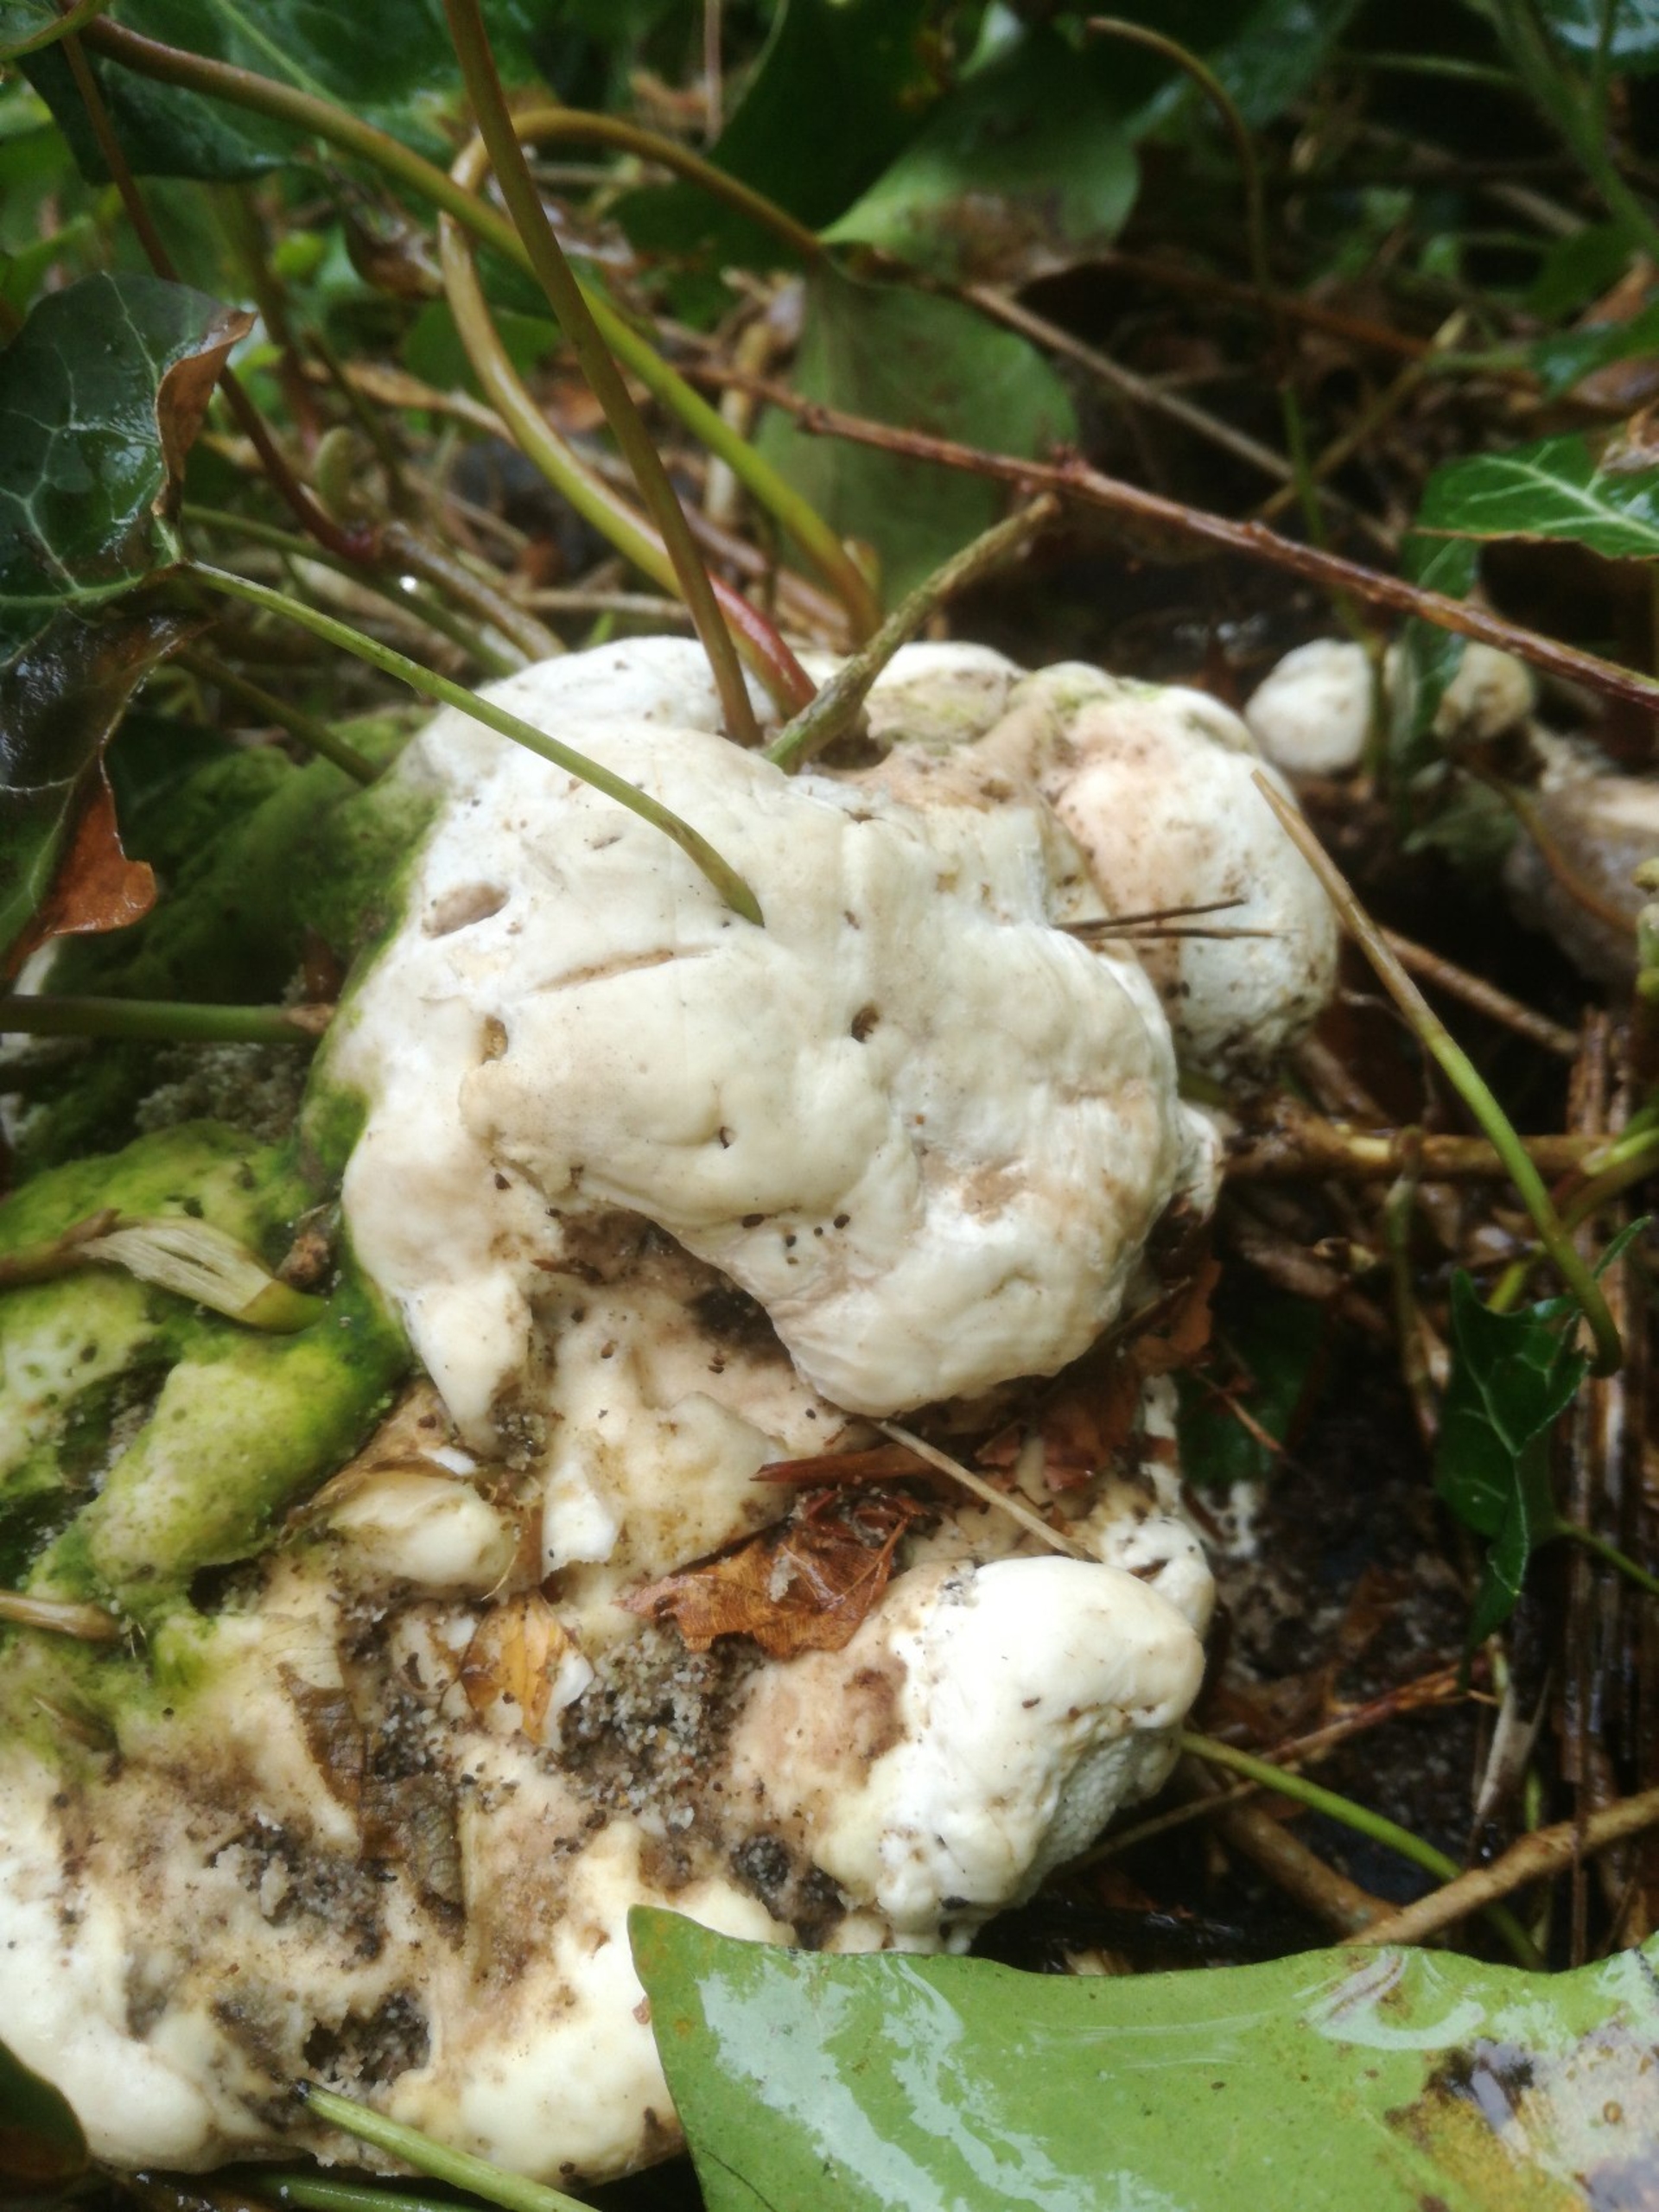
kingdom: Fungi
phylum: Basidiomycota
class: Agaricomycetes
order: Polyporales
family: Polyporaceae
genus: Trametes
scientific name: Trametes gibbosa
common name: Puklet læderporesvamp
